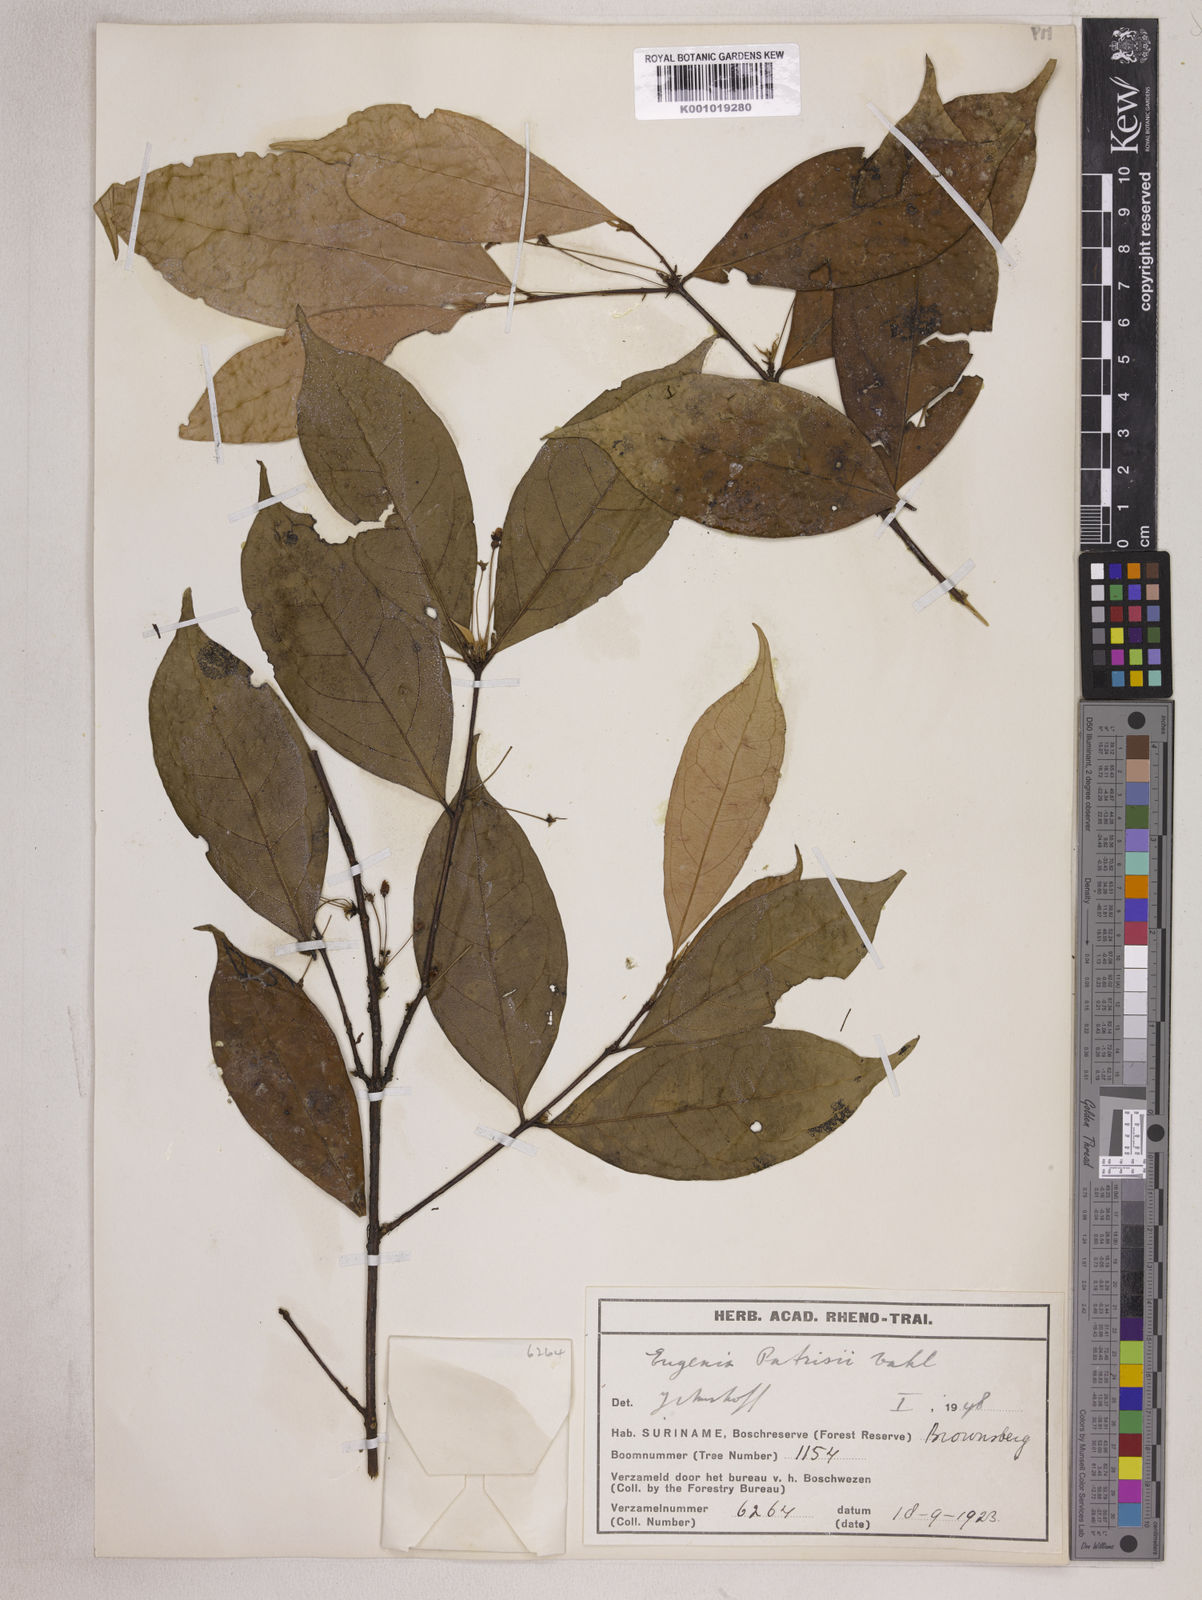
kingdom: Plantae
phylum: Tracheophyta
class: Magnoliopsida
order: Myrtales
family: Myrtaceae
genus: Eugenia
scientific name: Eugenia patrisii
